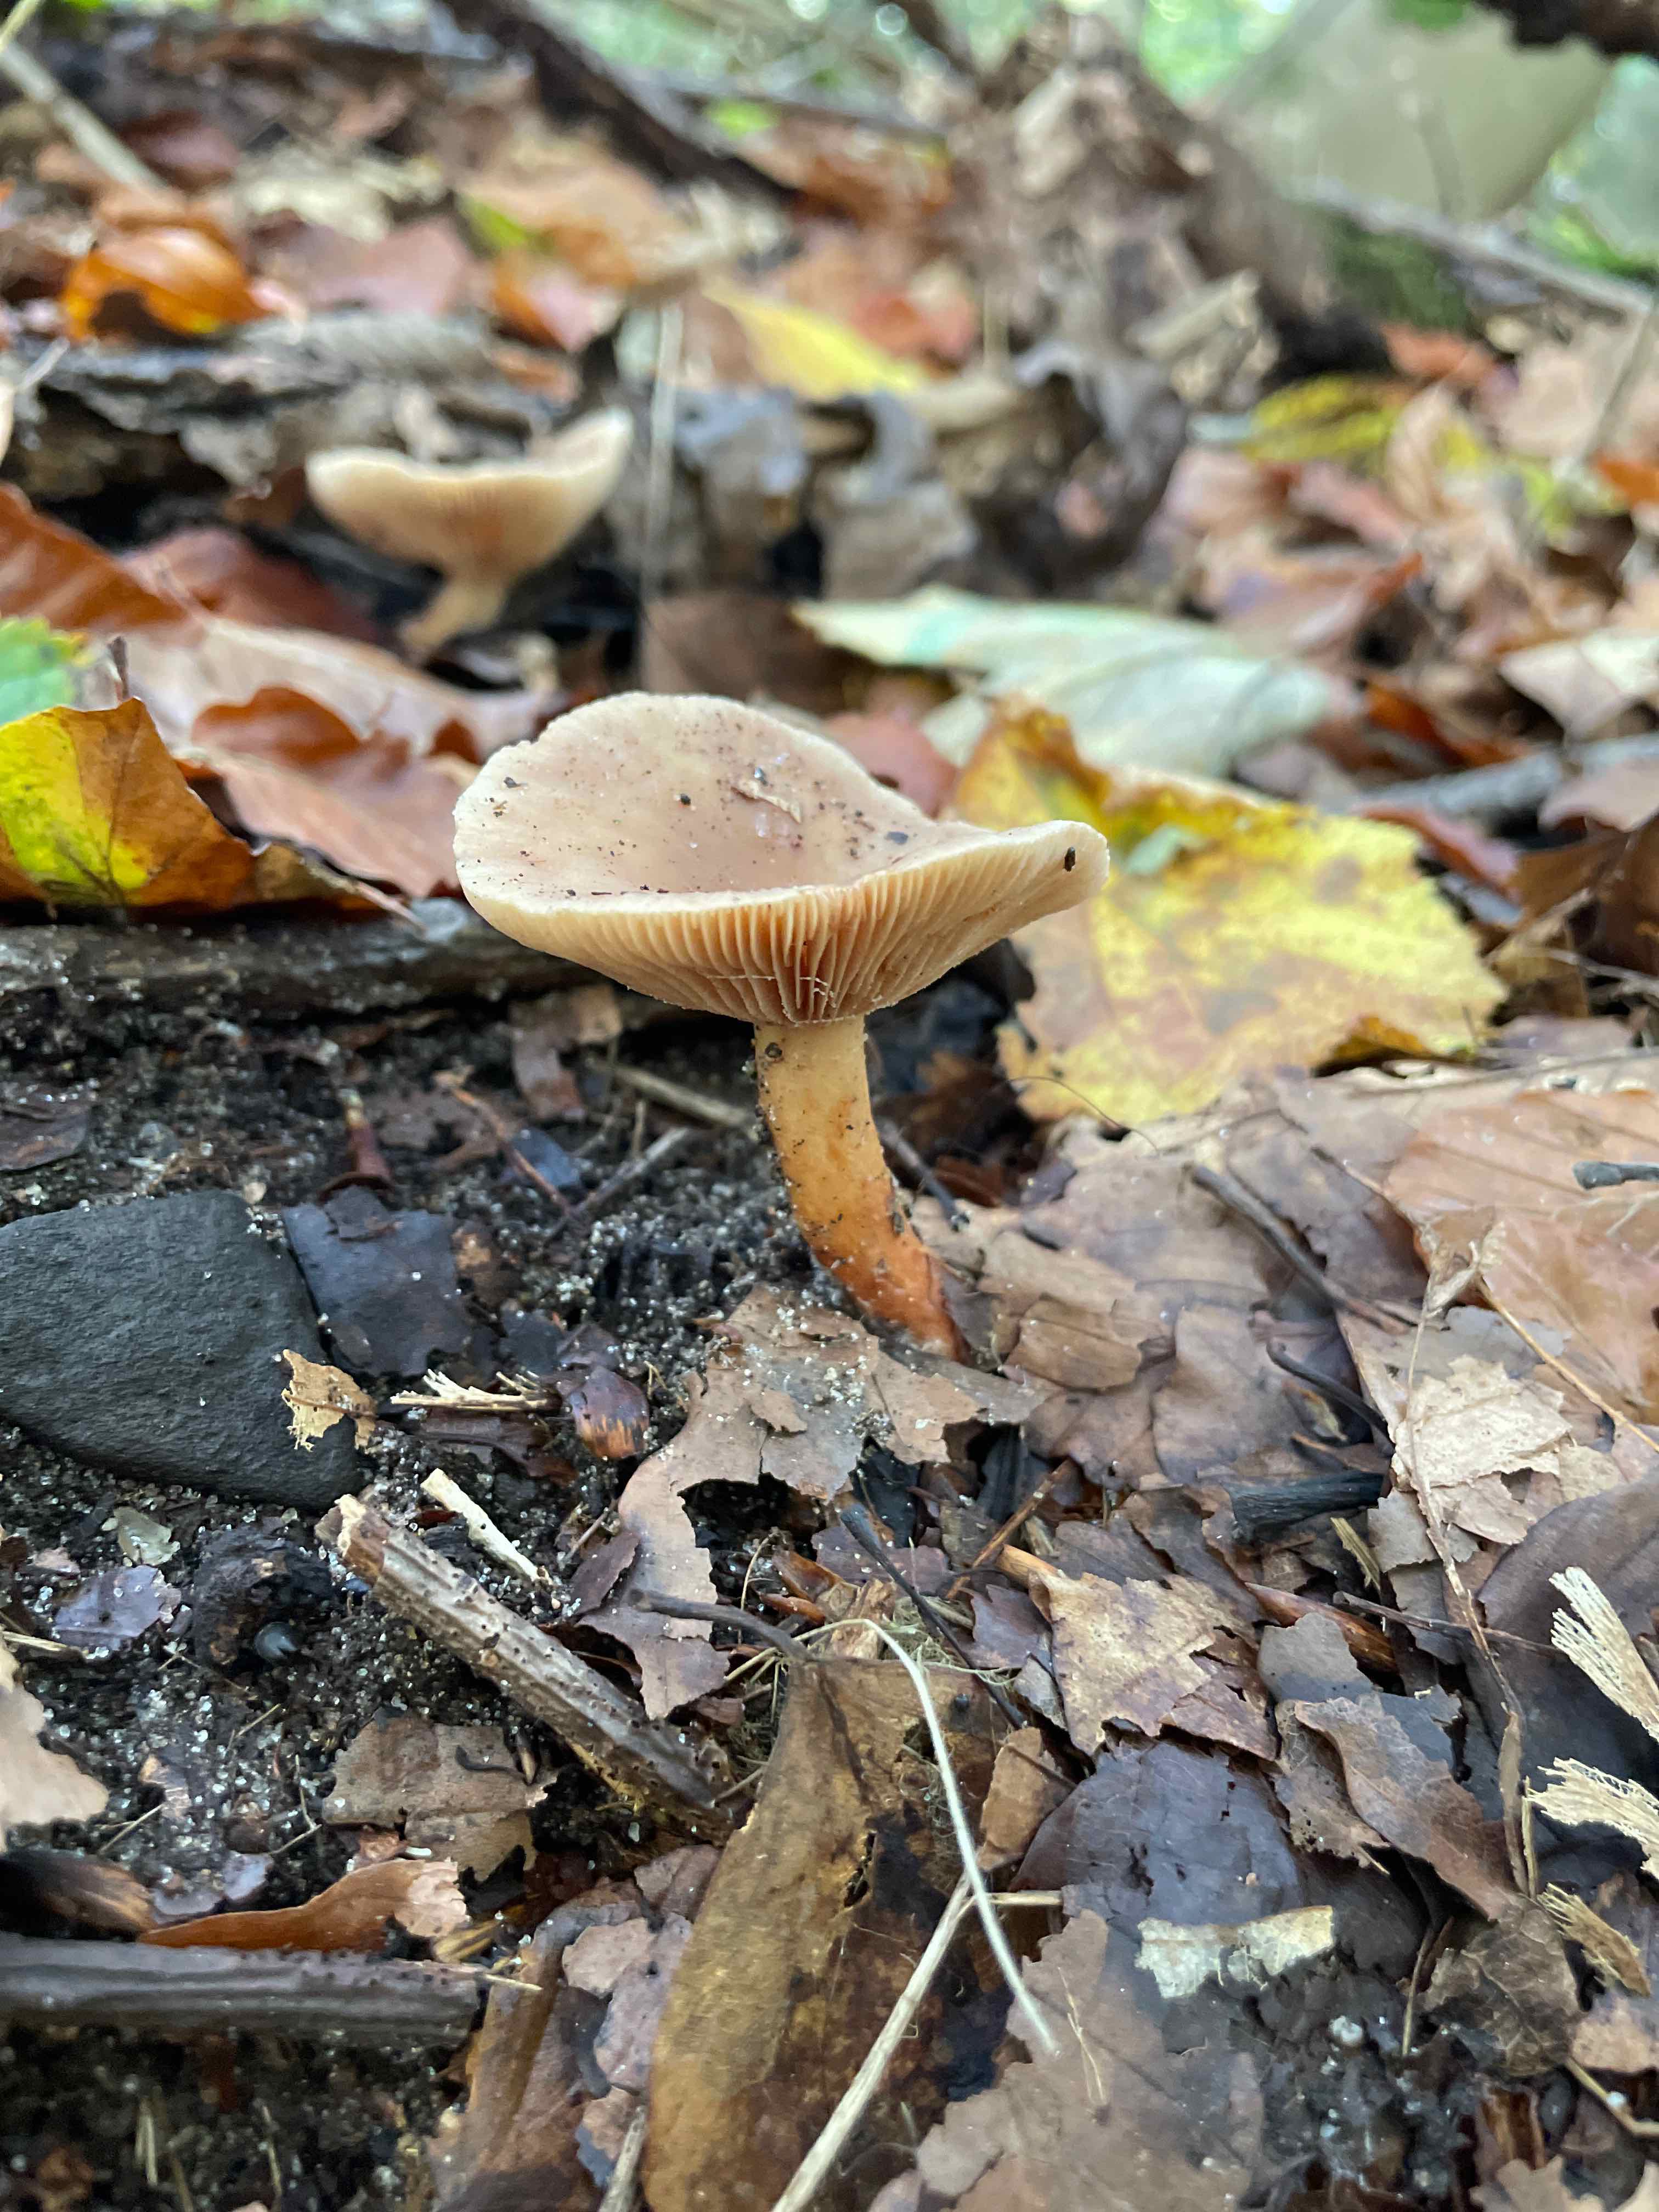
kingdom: Fungi
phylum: Basidiomycota
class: Agaricomycetes
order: Russulales
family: Russulaceae
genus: Lactarius
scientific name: Lactarius subdulcis
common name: sødlig mælkehat
